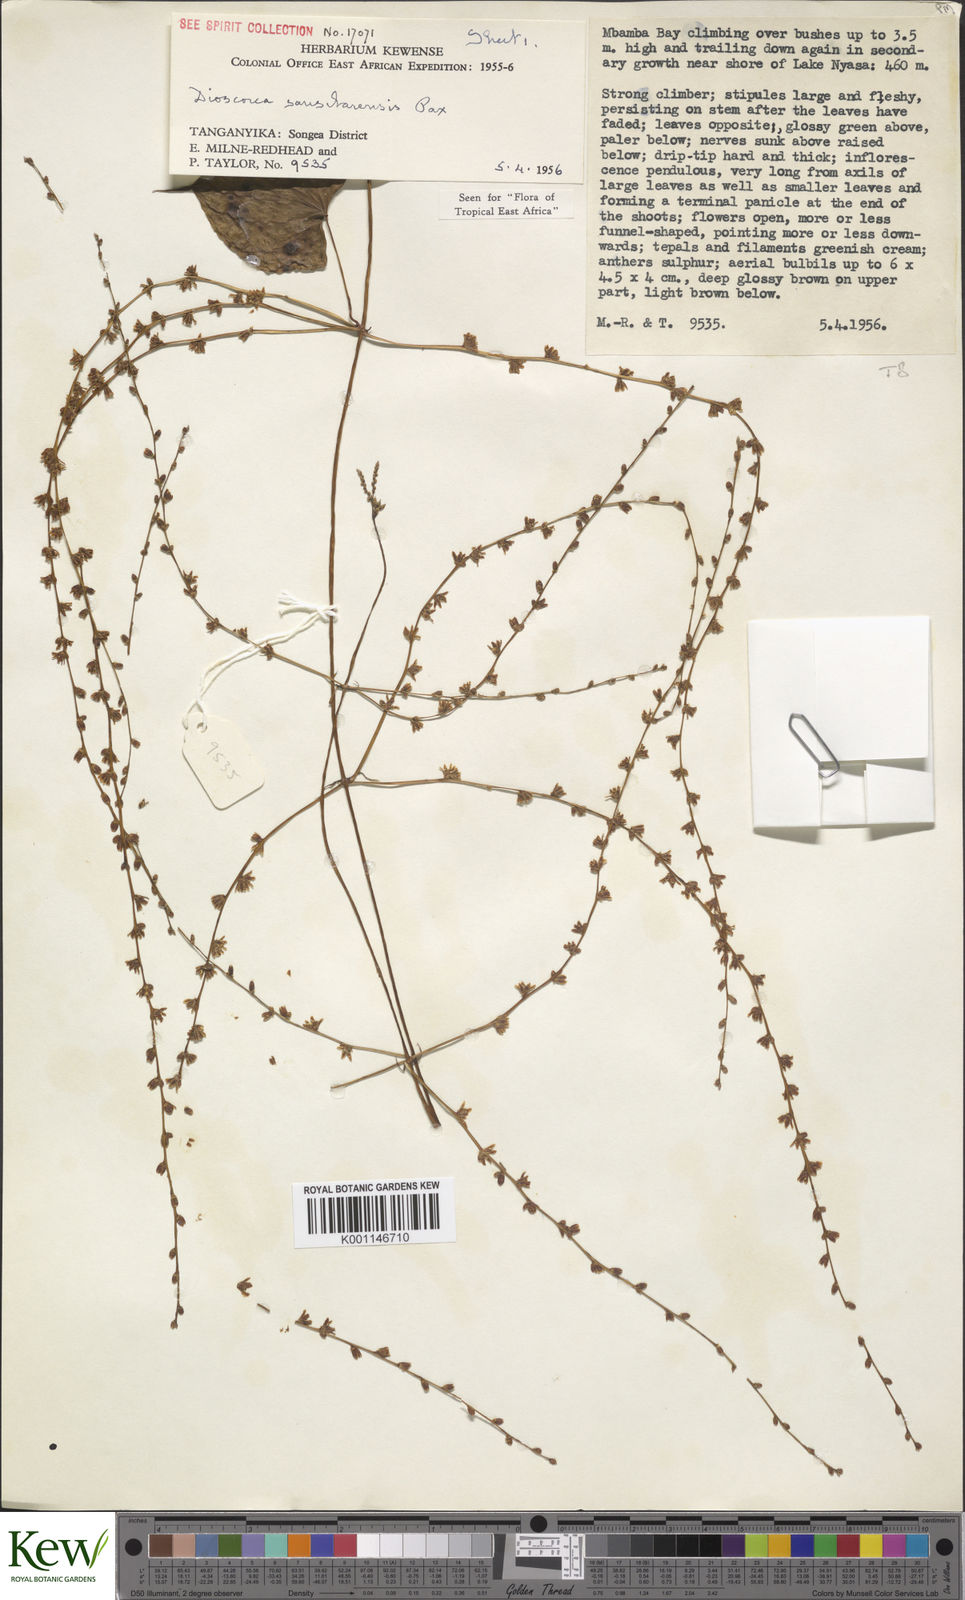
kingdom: Plantae
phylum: Tracheophyta
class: Liliopsida
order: Dioscoreales
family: Dioscoreaceae
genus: Dioscorea
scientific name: Dioscorea sansibarensis
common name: Zanzibar yam
